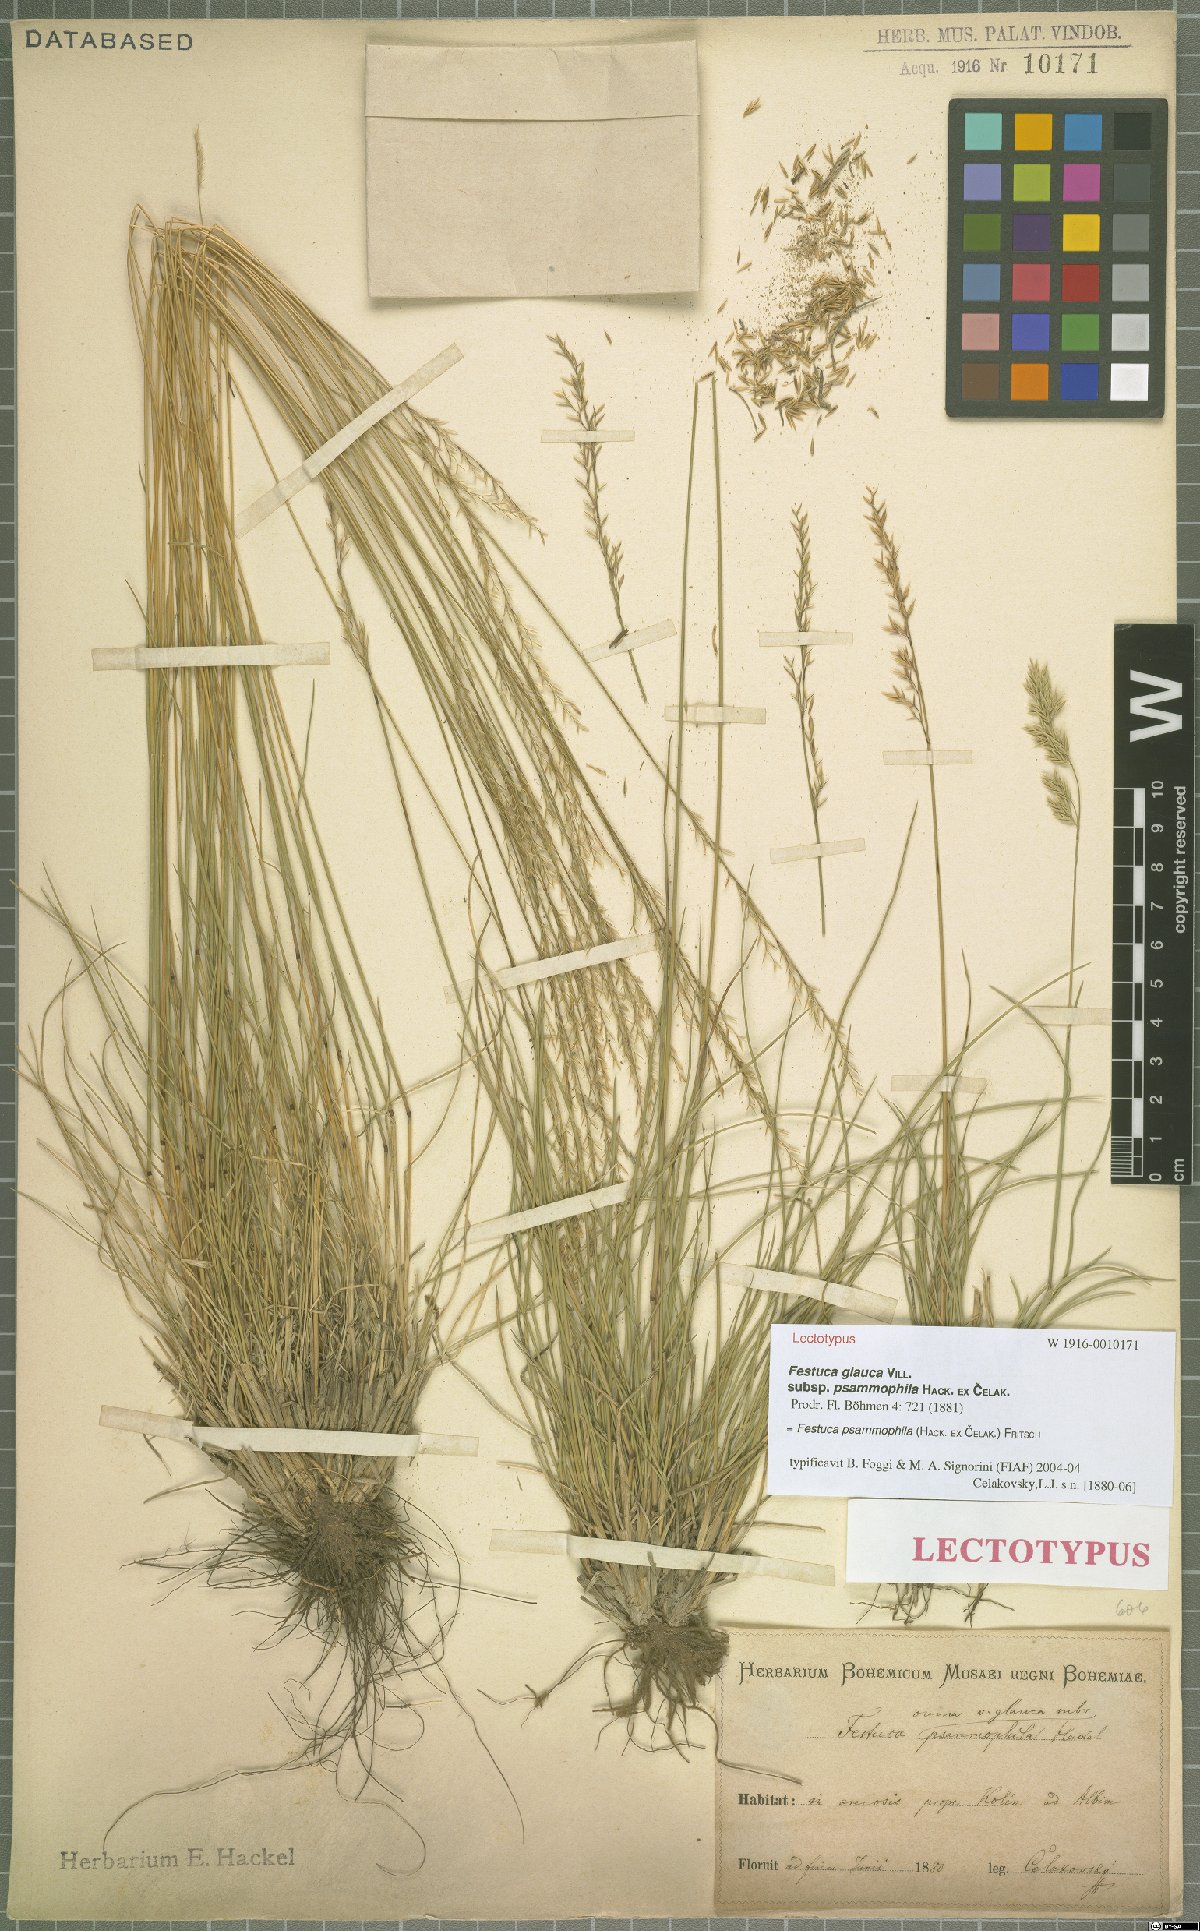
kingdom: Plantae
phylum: Tracheophyta
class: Liliopsida
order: Poales
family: Poaceae
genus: Festuca
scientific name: Festuca psammophila
